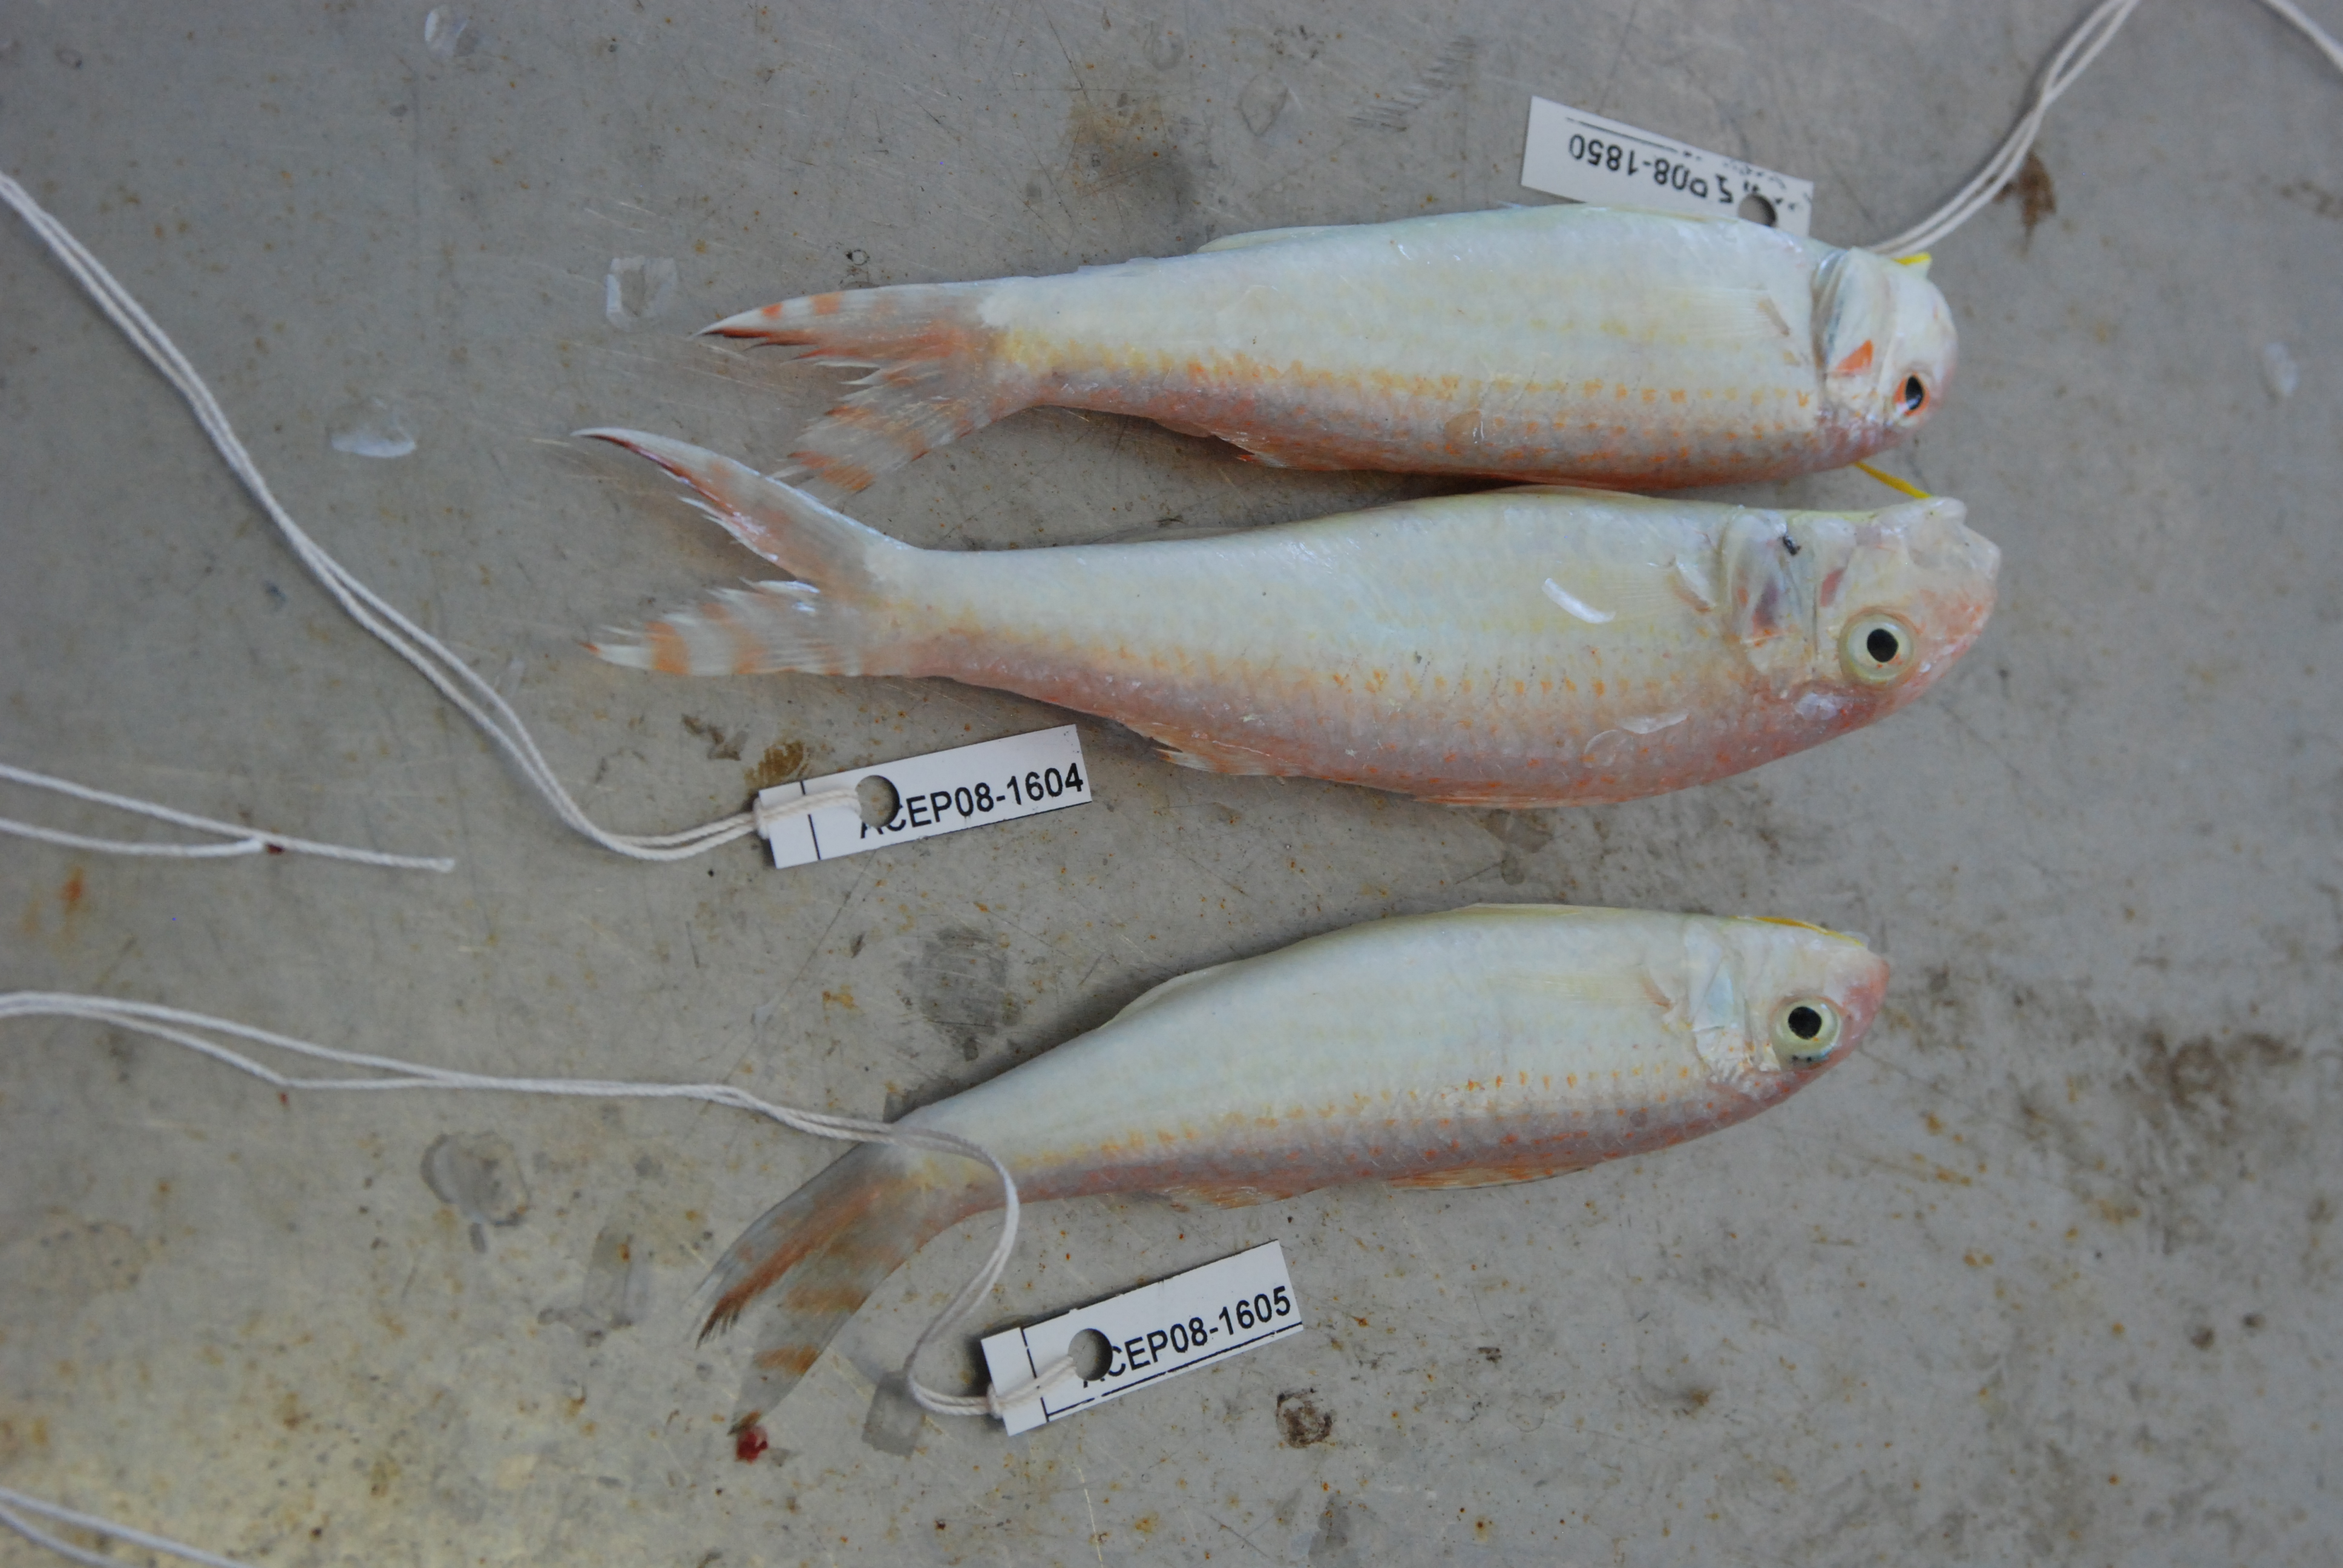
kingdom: Animalia
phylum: Chordata
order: Perciformes
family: Mullidae
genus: Upeneus
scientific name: Upeneus guttatus
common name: Spotted goatfish
